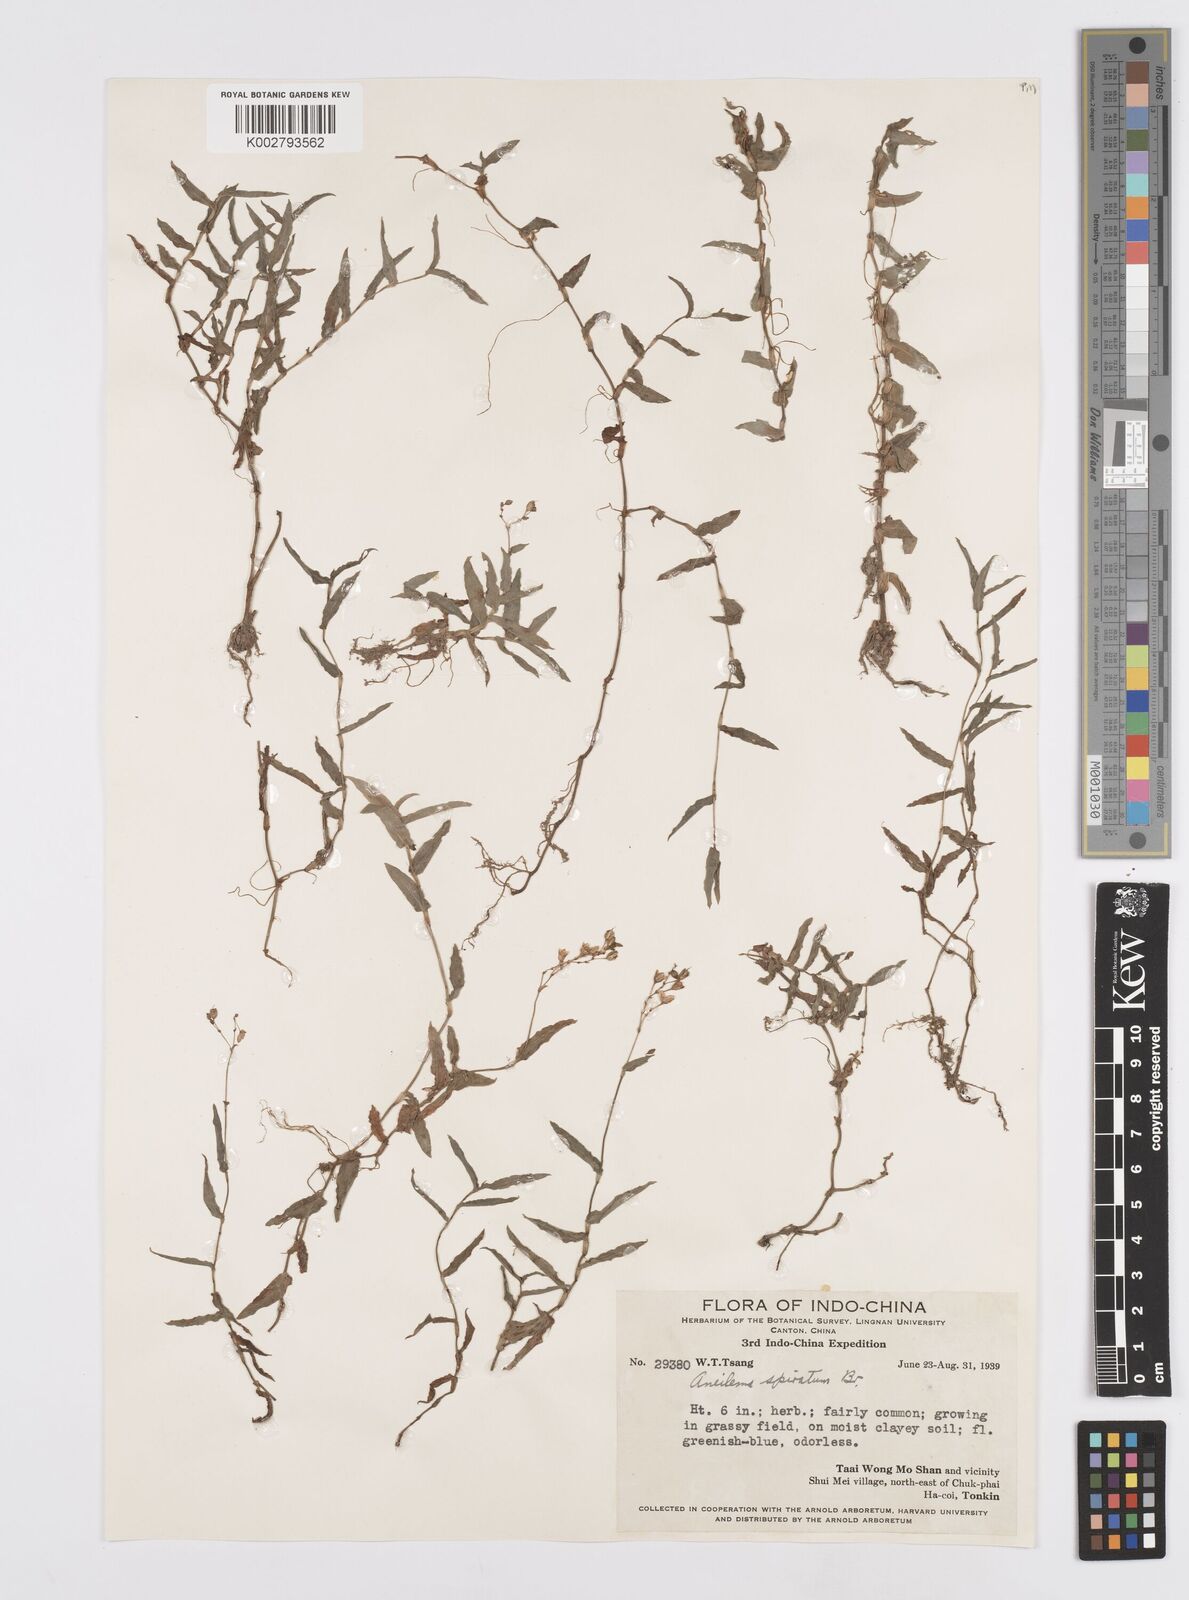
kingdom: Plantae
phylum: Tracheophyta
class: Liliopsida
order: Commelinales
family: Commelinaceae
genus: Murdannia
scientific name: Murdannia spirata
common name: Asiatic dewflower
